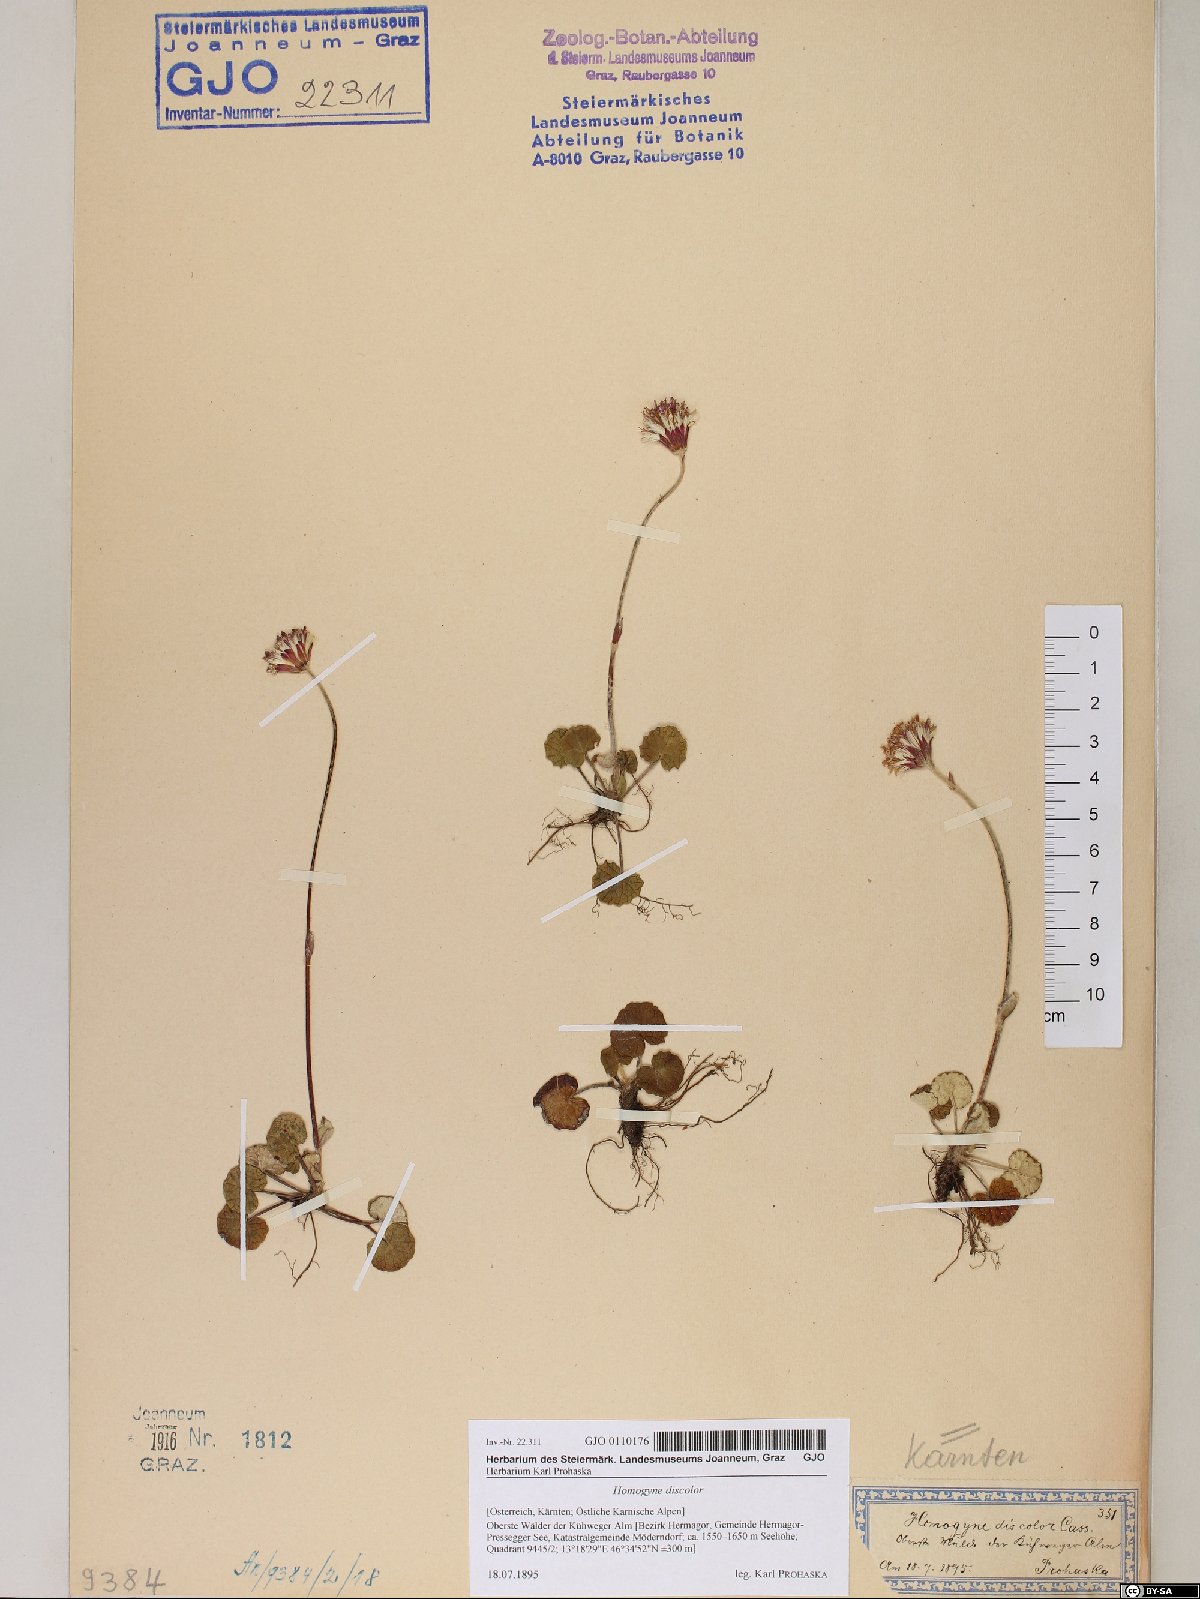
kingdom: Plantae
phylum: Tracheophyta
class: Magnoliopsida
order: Asterales
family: Asteraceae
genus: Homogyne
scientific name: Homogyne discolor
